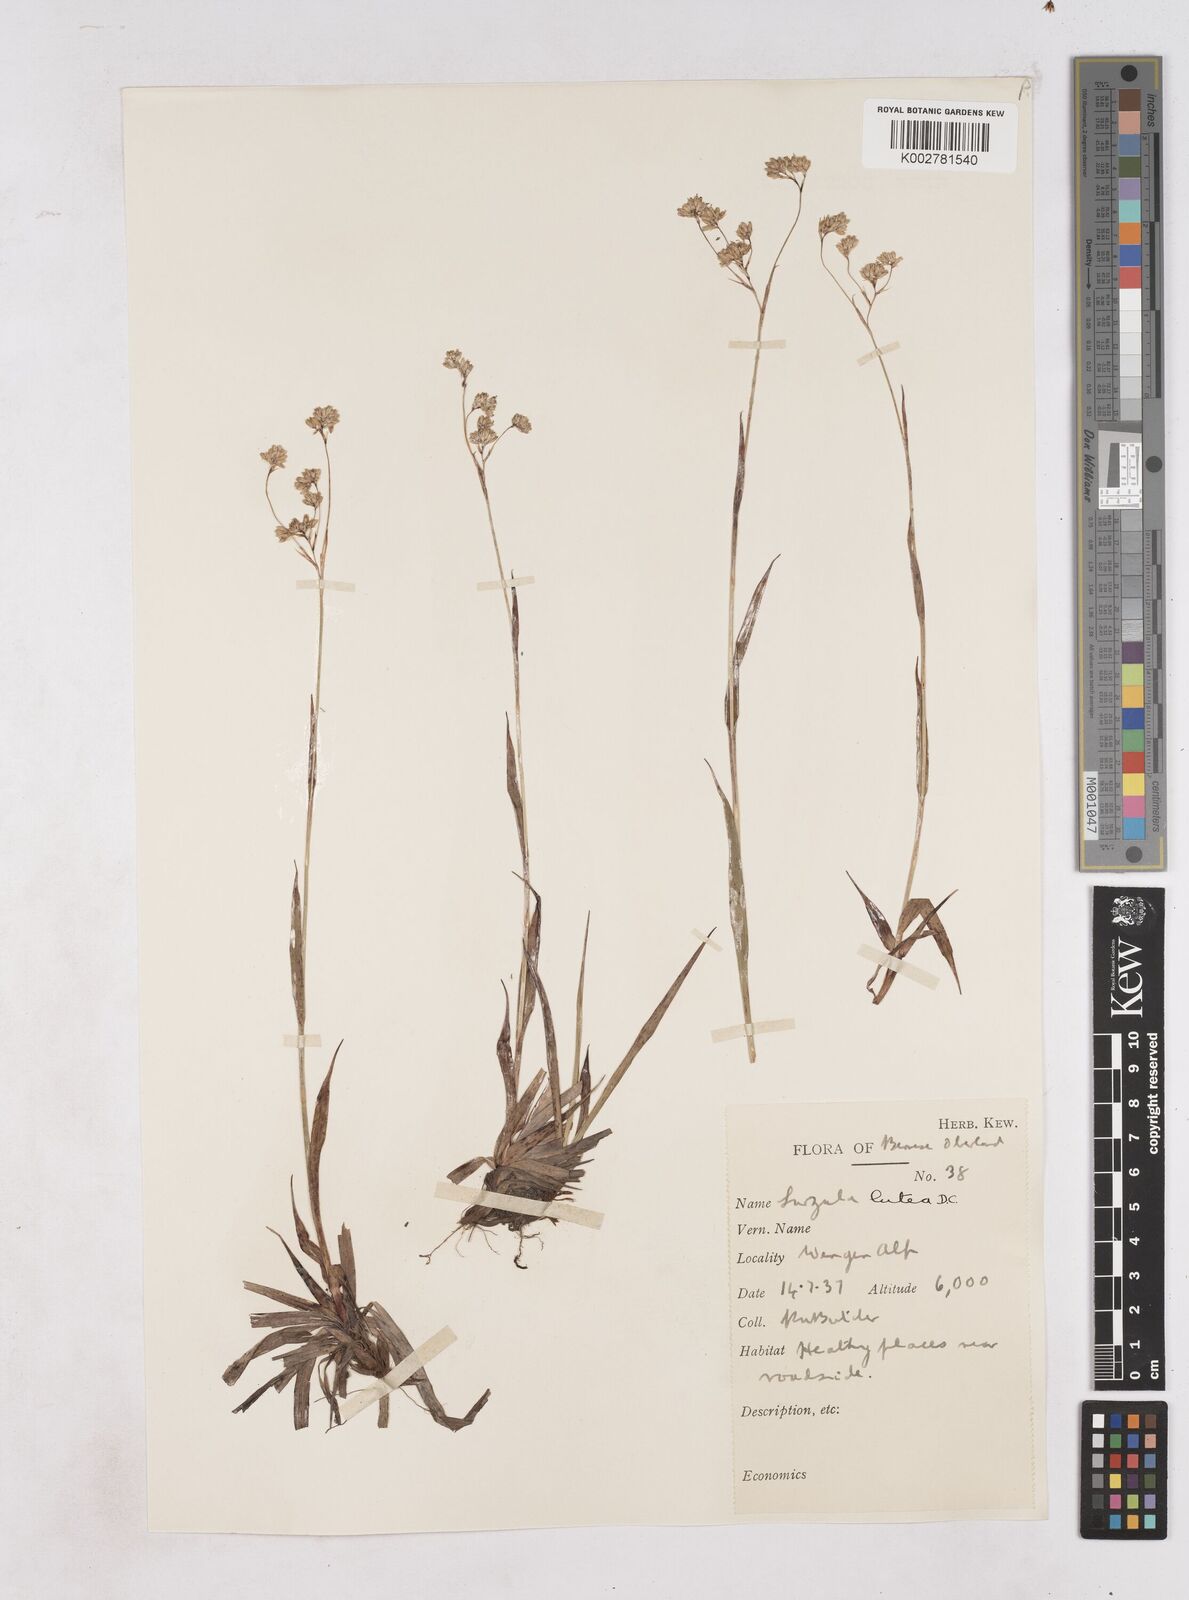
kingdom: Plantae
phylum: Tracheophyta
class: Liliopsida
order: Poales
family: Juncaceae
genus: Luzula
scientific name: Luzula lutea
